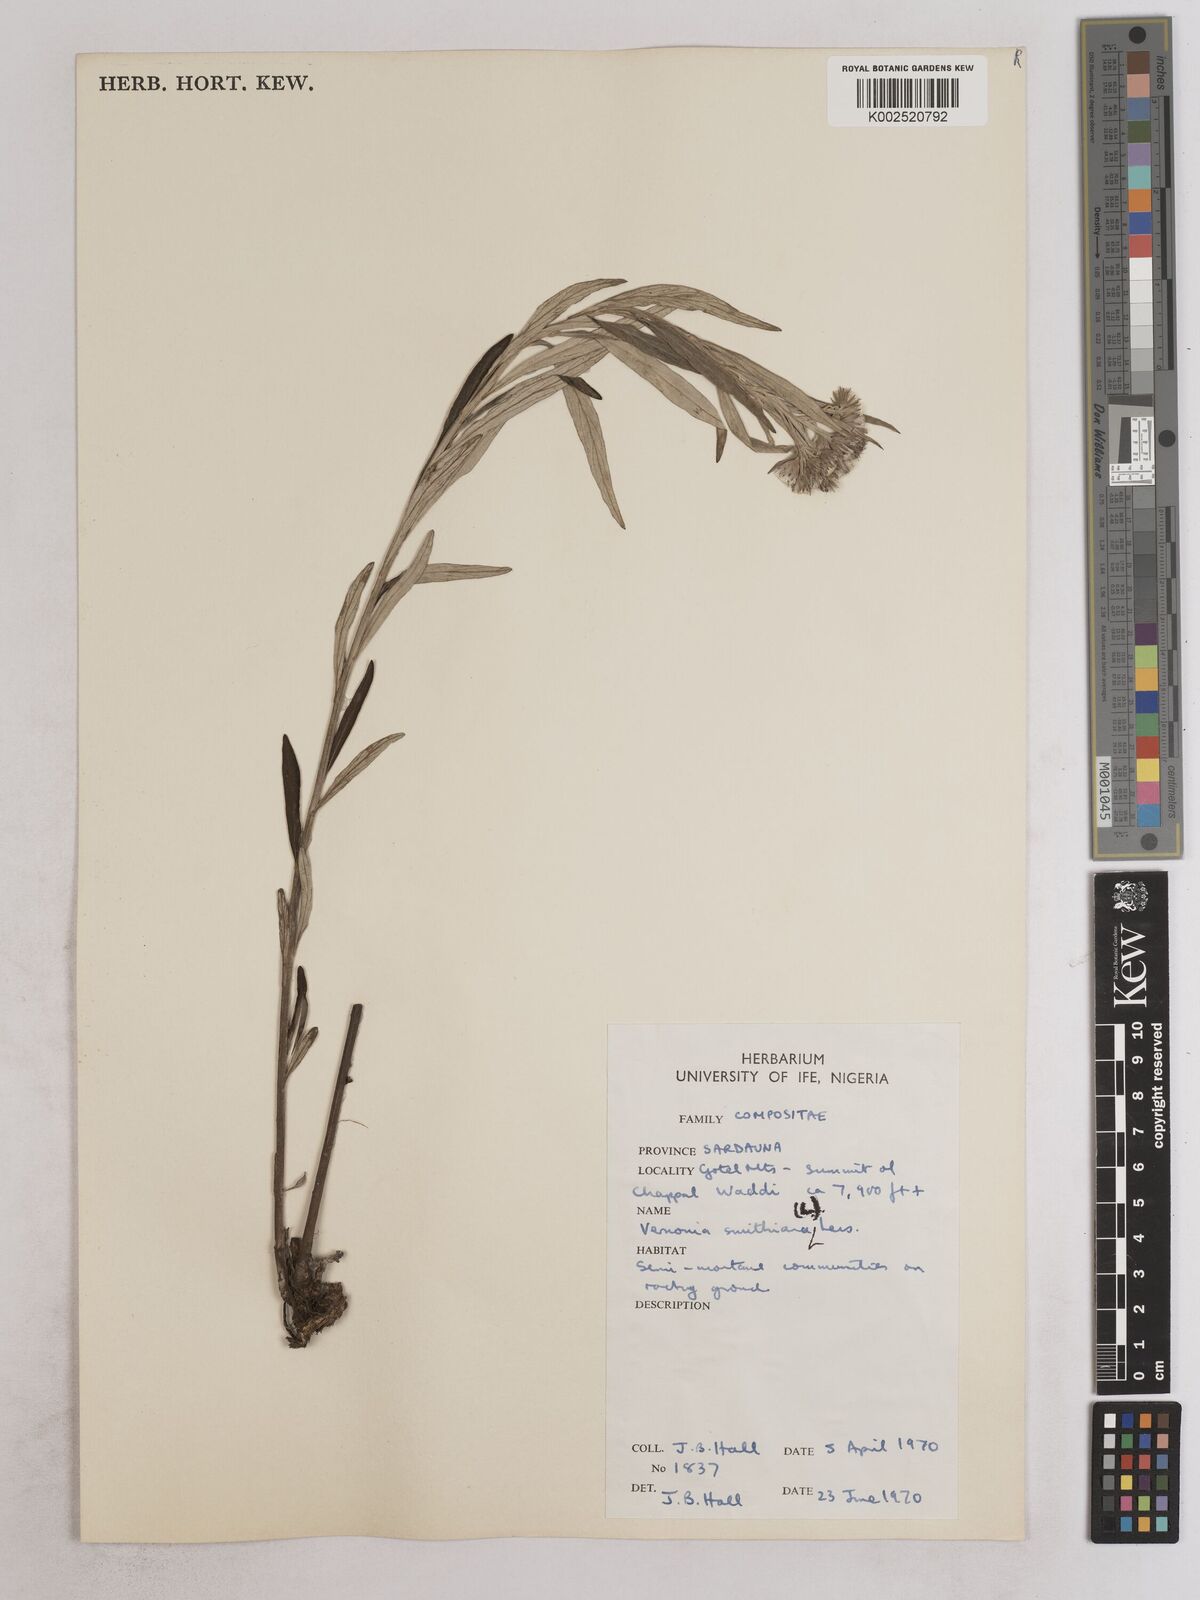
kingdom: Plantae
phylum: Tracheophyta
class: Magnoliopsida
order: Asterales
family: Asteraceae
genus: Hilliardiella
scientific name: Hilliardiella smithiana
